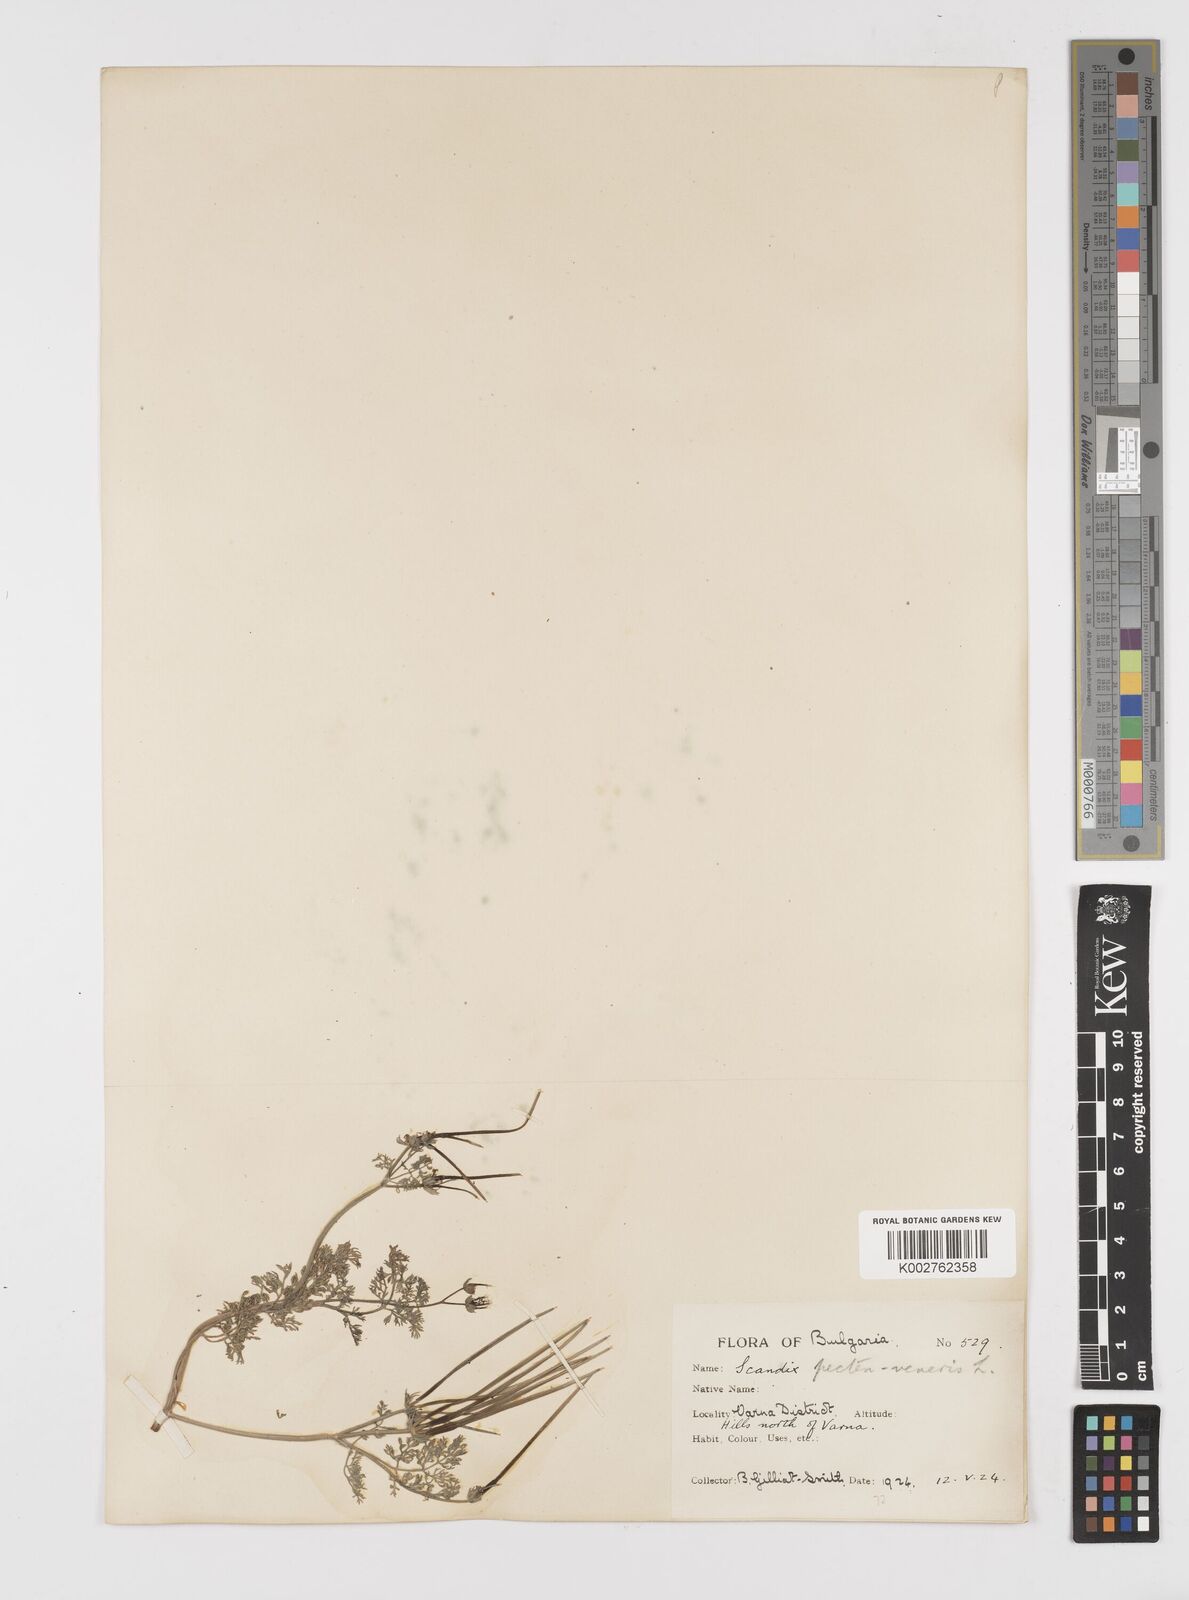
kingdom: Plantae
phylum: Tracheophyta
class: Magnoliopsida
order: Apiales
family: Apiaceae
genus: Scandix
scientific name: Scandix pecten-veneris
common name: Shepherd's-needle
